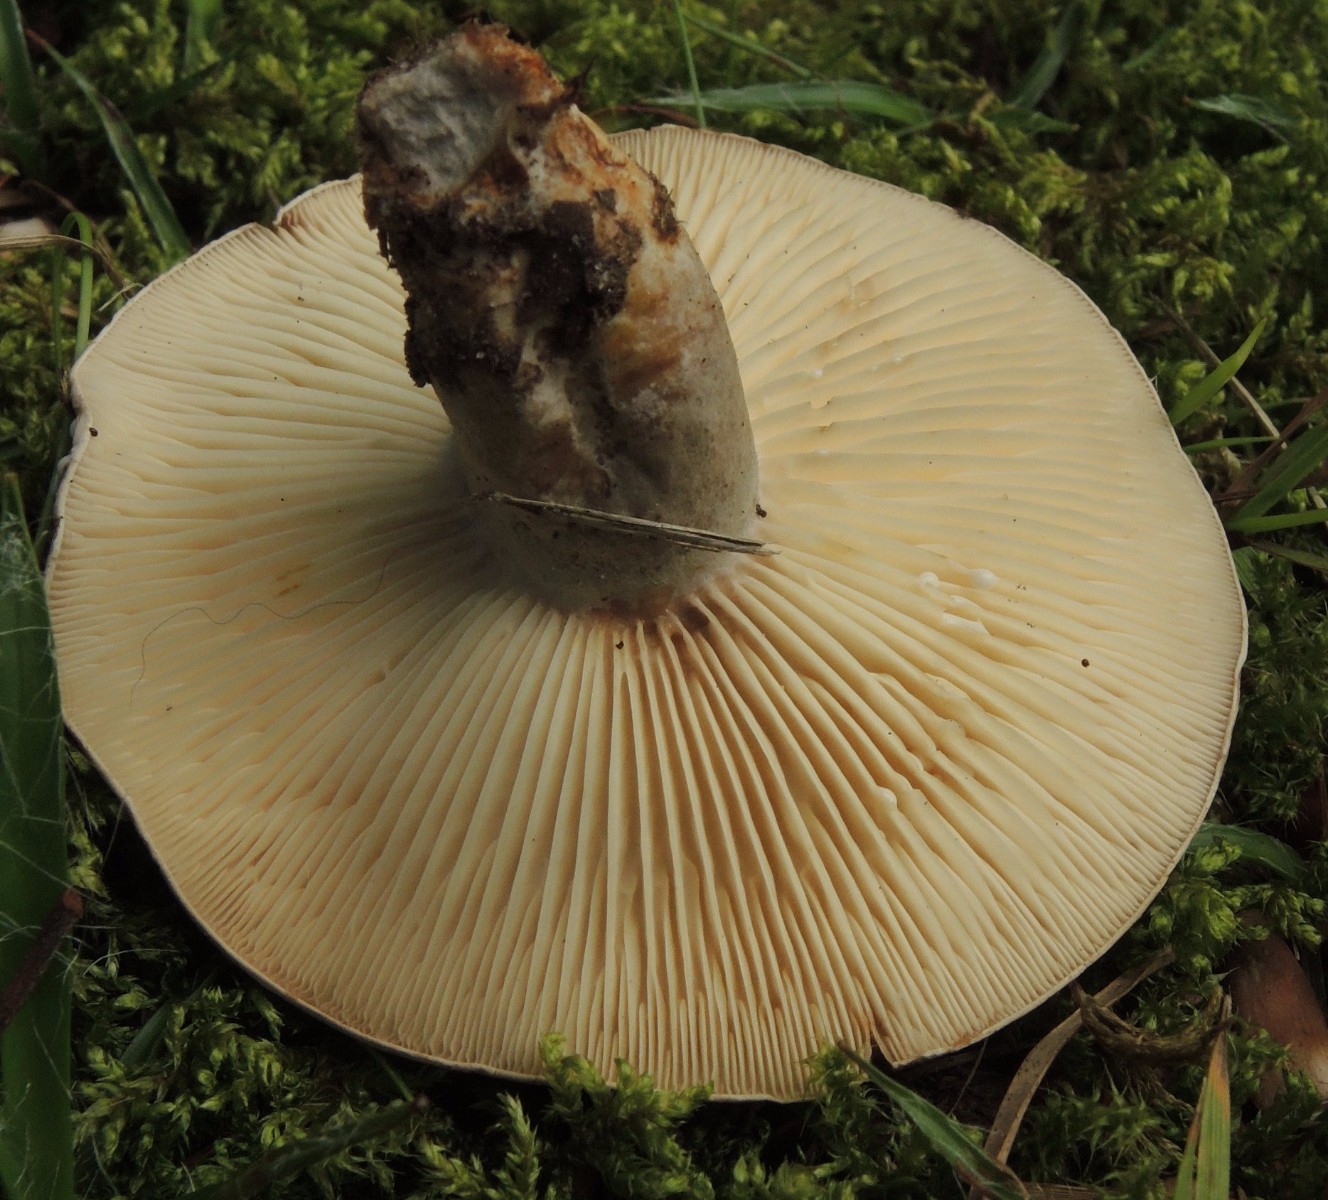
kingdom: Fungi
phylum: Basidiomycota
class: Agaricomycetes
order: Russulales
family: Russulaceae
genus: Lactarius
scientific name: Lactarius fluens
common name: lysrandet mælkehat
